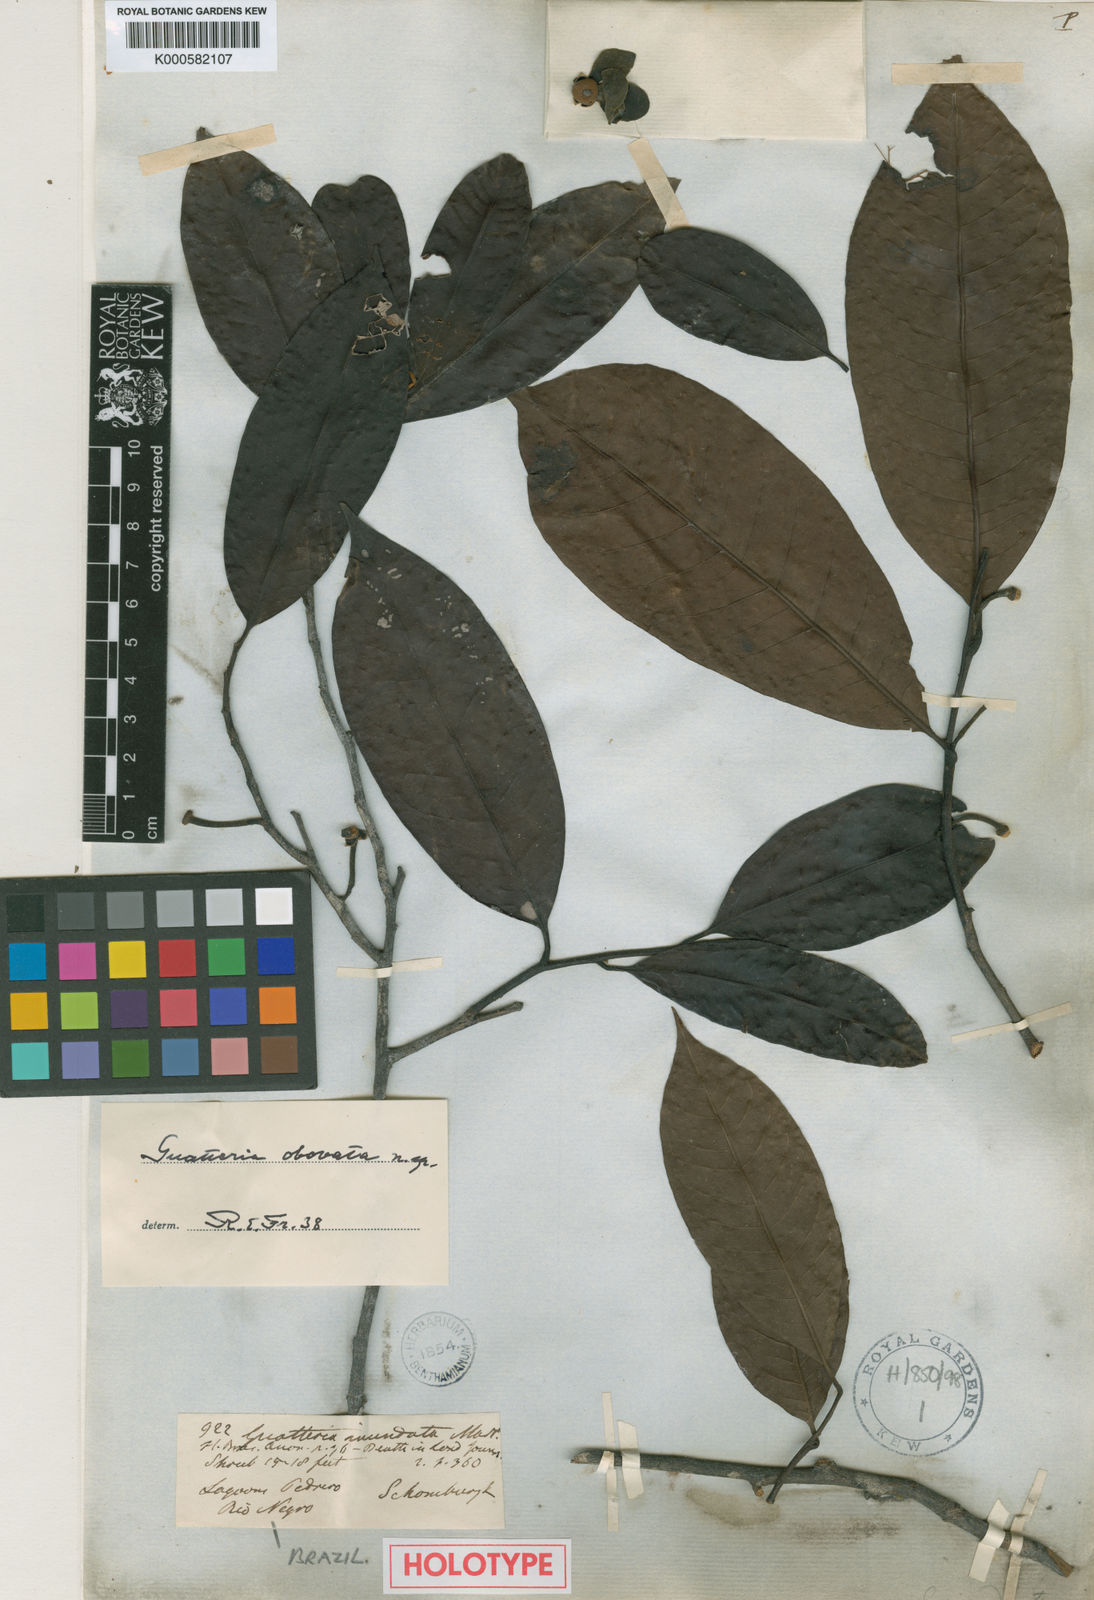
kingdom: Plantae
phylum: Tracheophyta
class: Magnoliopsida
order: Magnoliales
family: Annonaceae
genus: Guatteria
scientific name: Guatteria obovata
